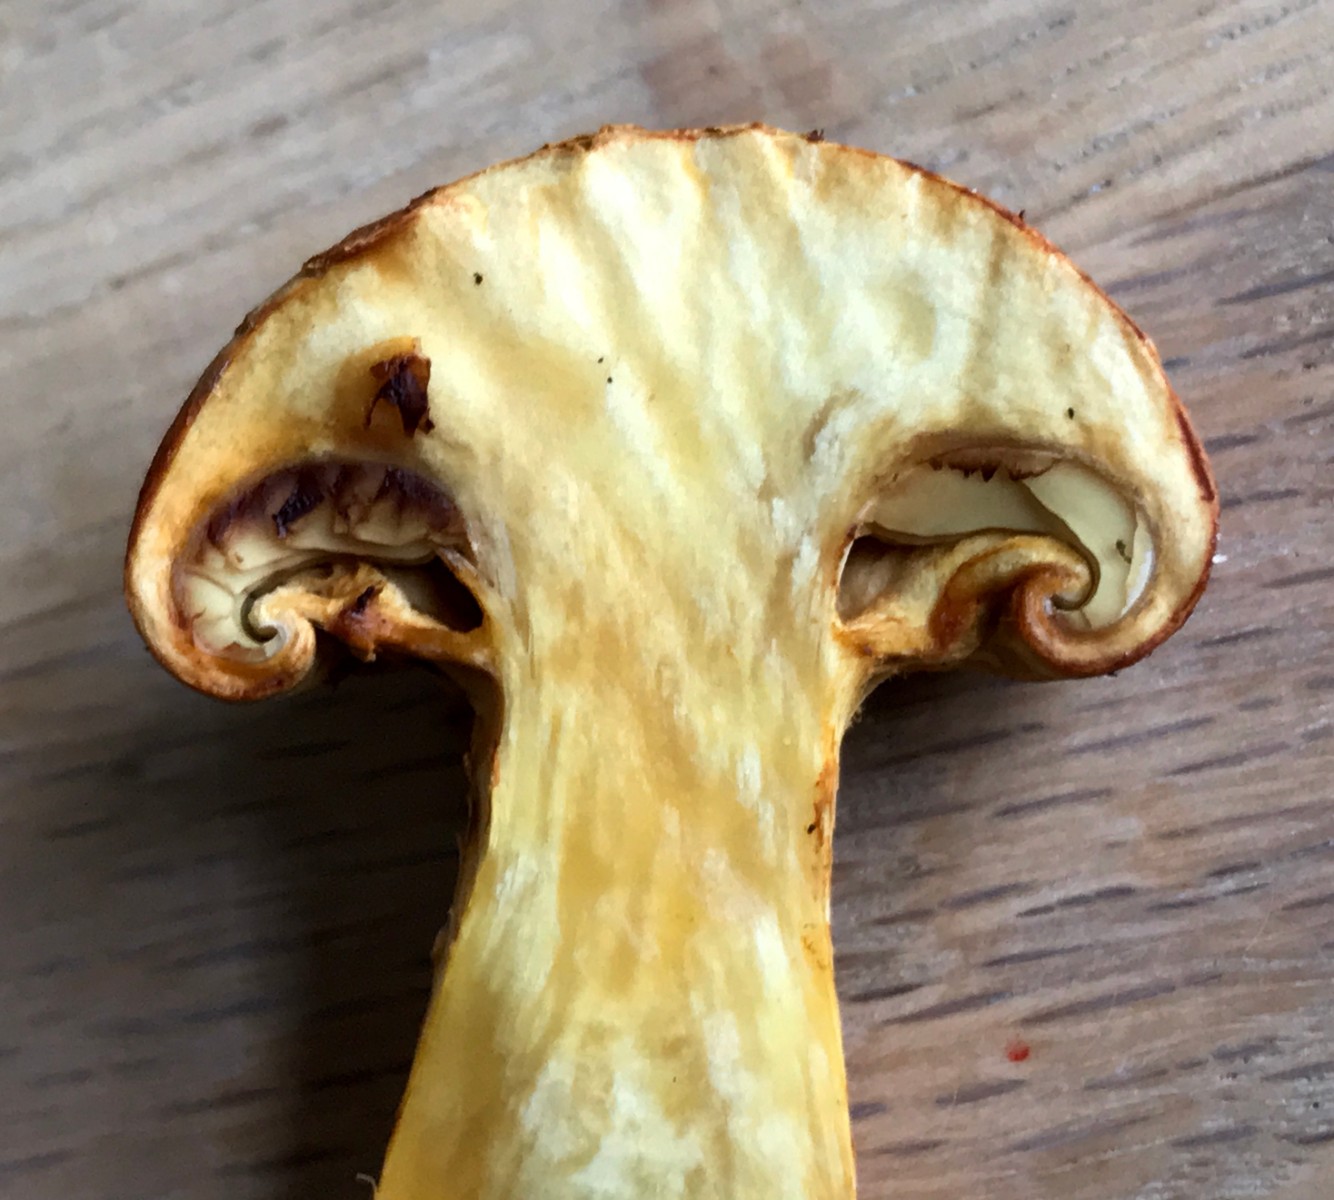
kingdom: Fungi
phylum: Basidiomycota
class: Agaricomycetes
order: Agaricales
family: Hymenogastraceae
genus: Gymnopilus
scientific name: Gymnopilus spectabilis
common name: fibret flammehat
